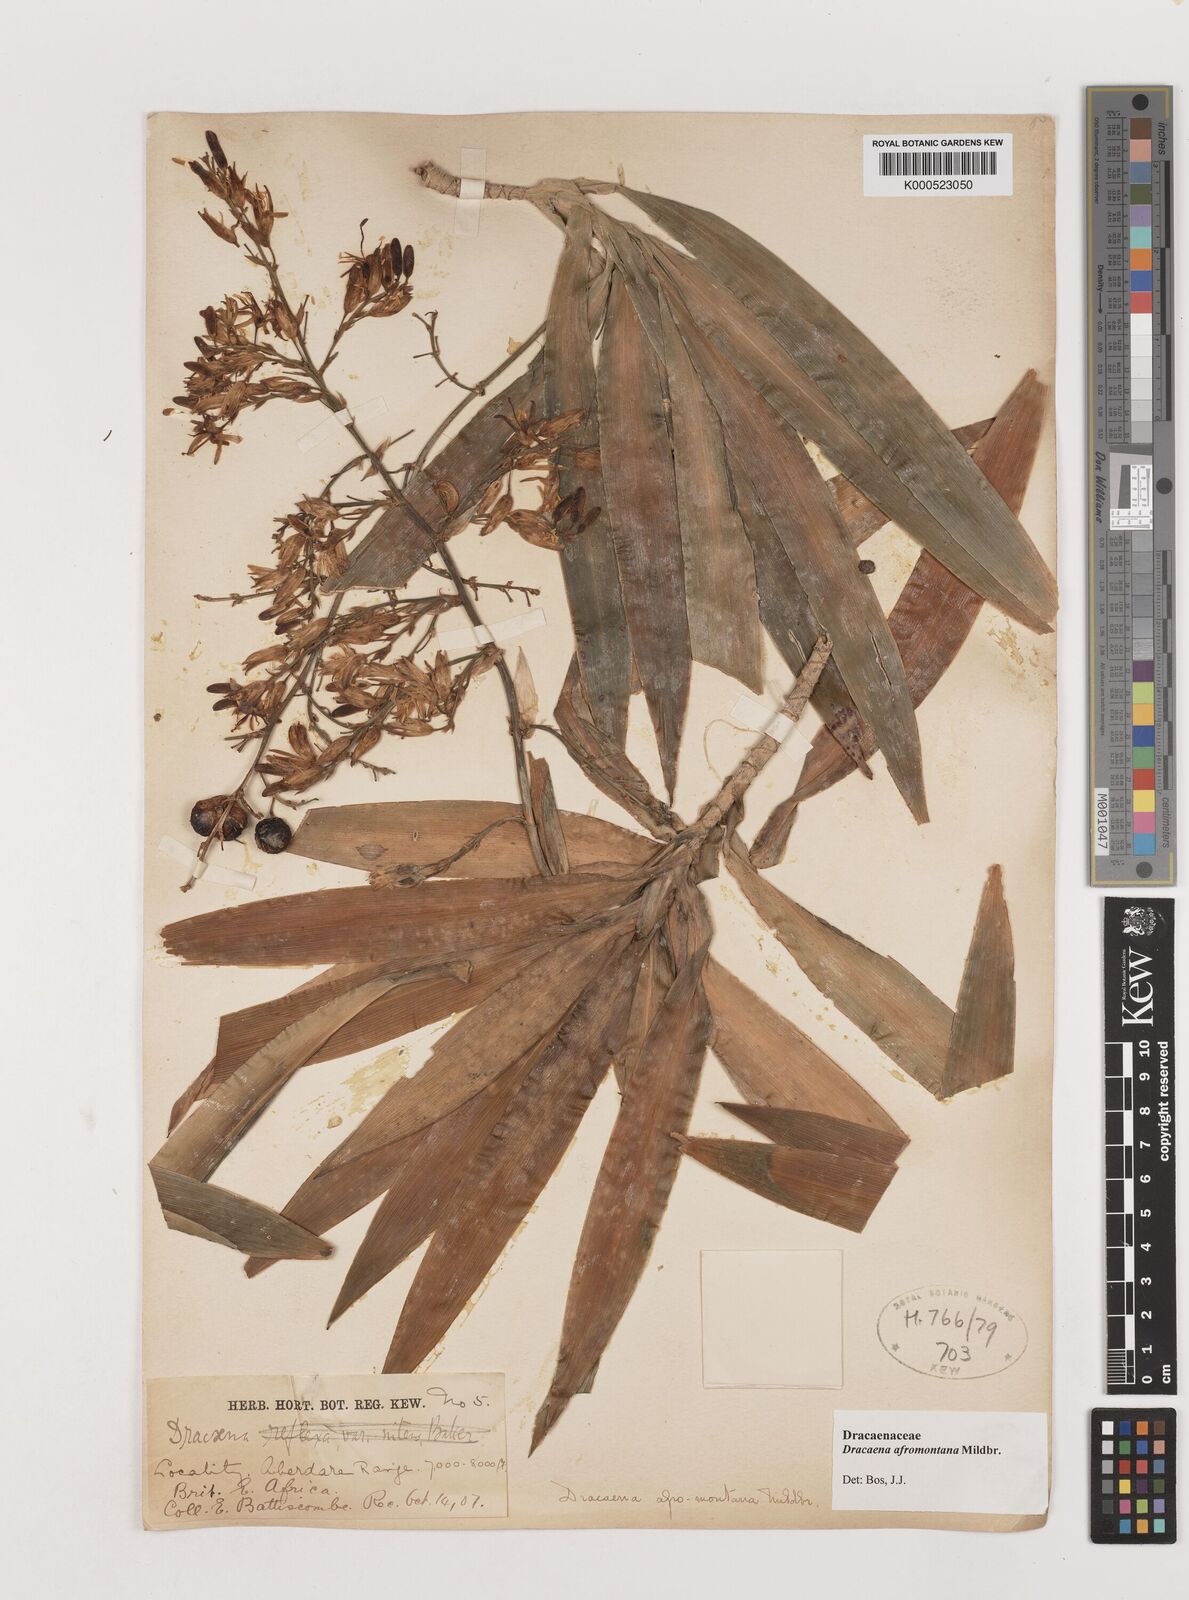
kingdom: Plantae
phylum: Tracheophyta
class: Liliopsida
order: Asparagales
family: Asparagaceae
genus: Dracaena
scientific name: Dracaena afromontana
